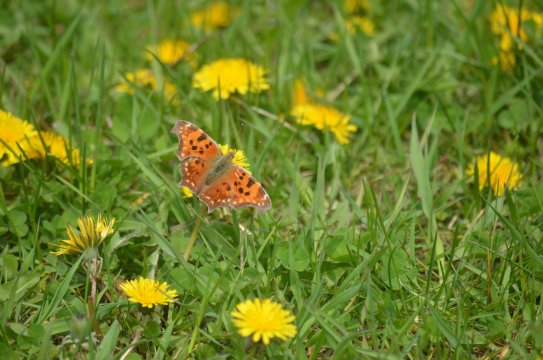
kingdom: Animalia
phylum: Arthropoda
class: Insecta
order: Lepidoptera
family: Nymphalidae
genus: Polygonia
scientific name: Polygonia comma
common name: Eastern Comma
